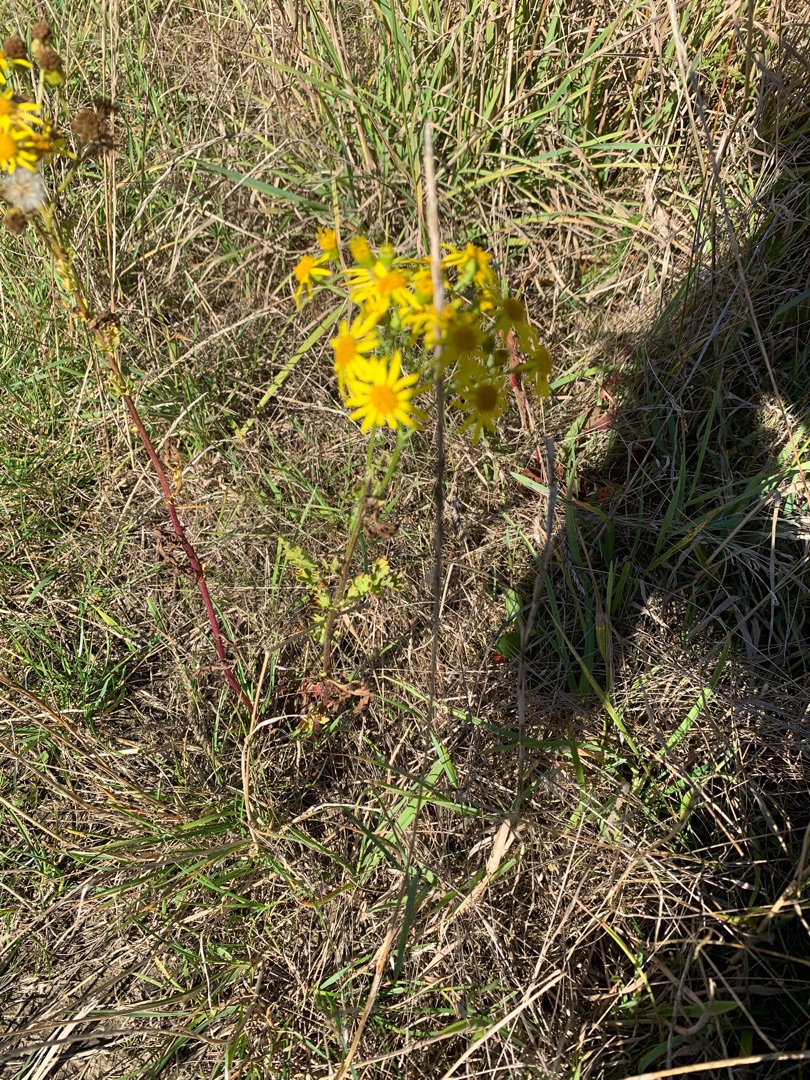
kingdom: Plantae
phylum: Tracheophyta
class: Magnoliopsida
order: Asterales
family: Asteraceae
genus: Jacobaea
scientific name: Jacobaea vulgaris
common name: Eng-brandbæger
